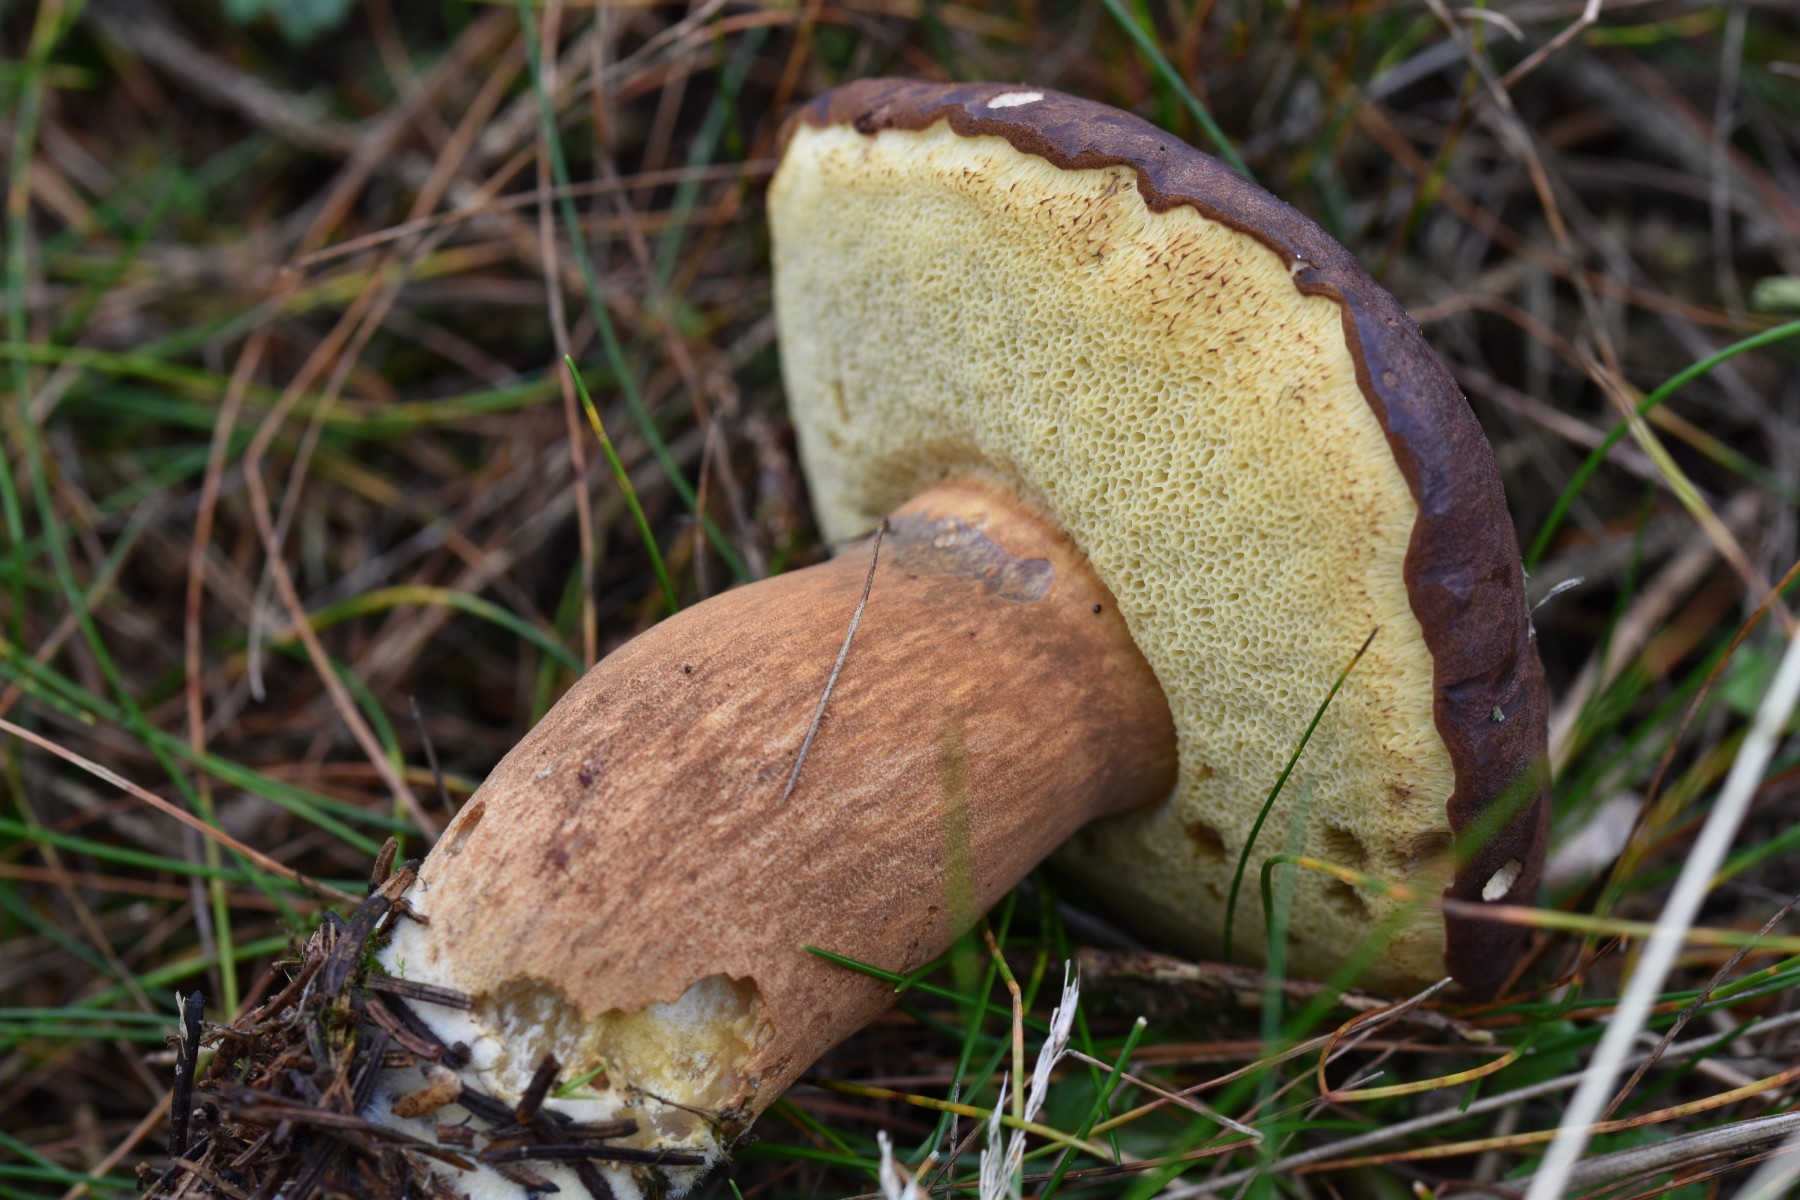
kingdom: Fungi
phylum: Basidiomycota
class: Agaricomycetes
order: Boletales
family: Boletaceae
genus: Imleria
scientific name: Imleria badia
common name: brunstokket rørhat
